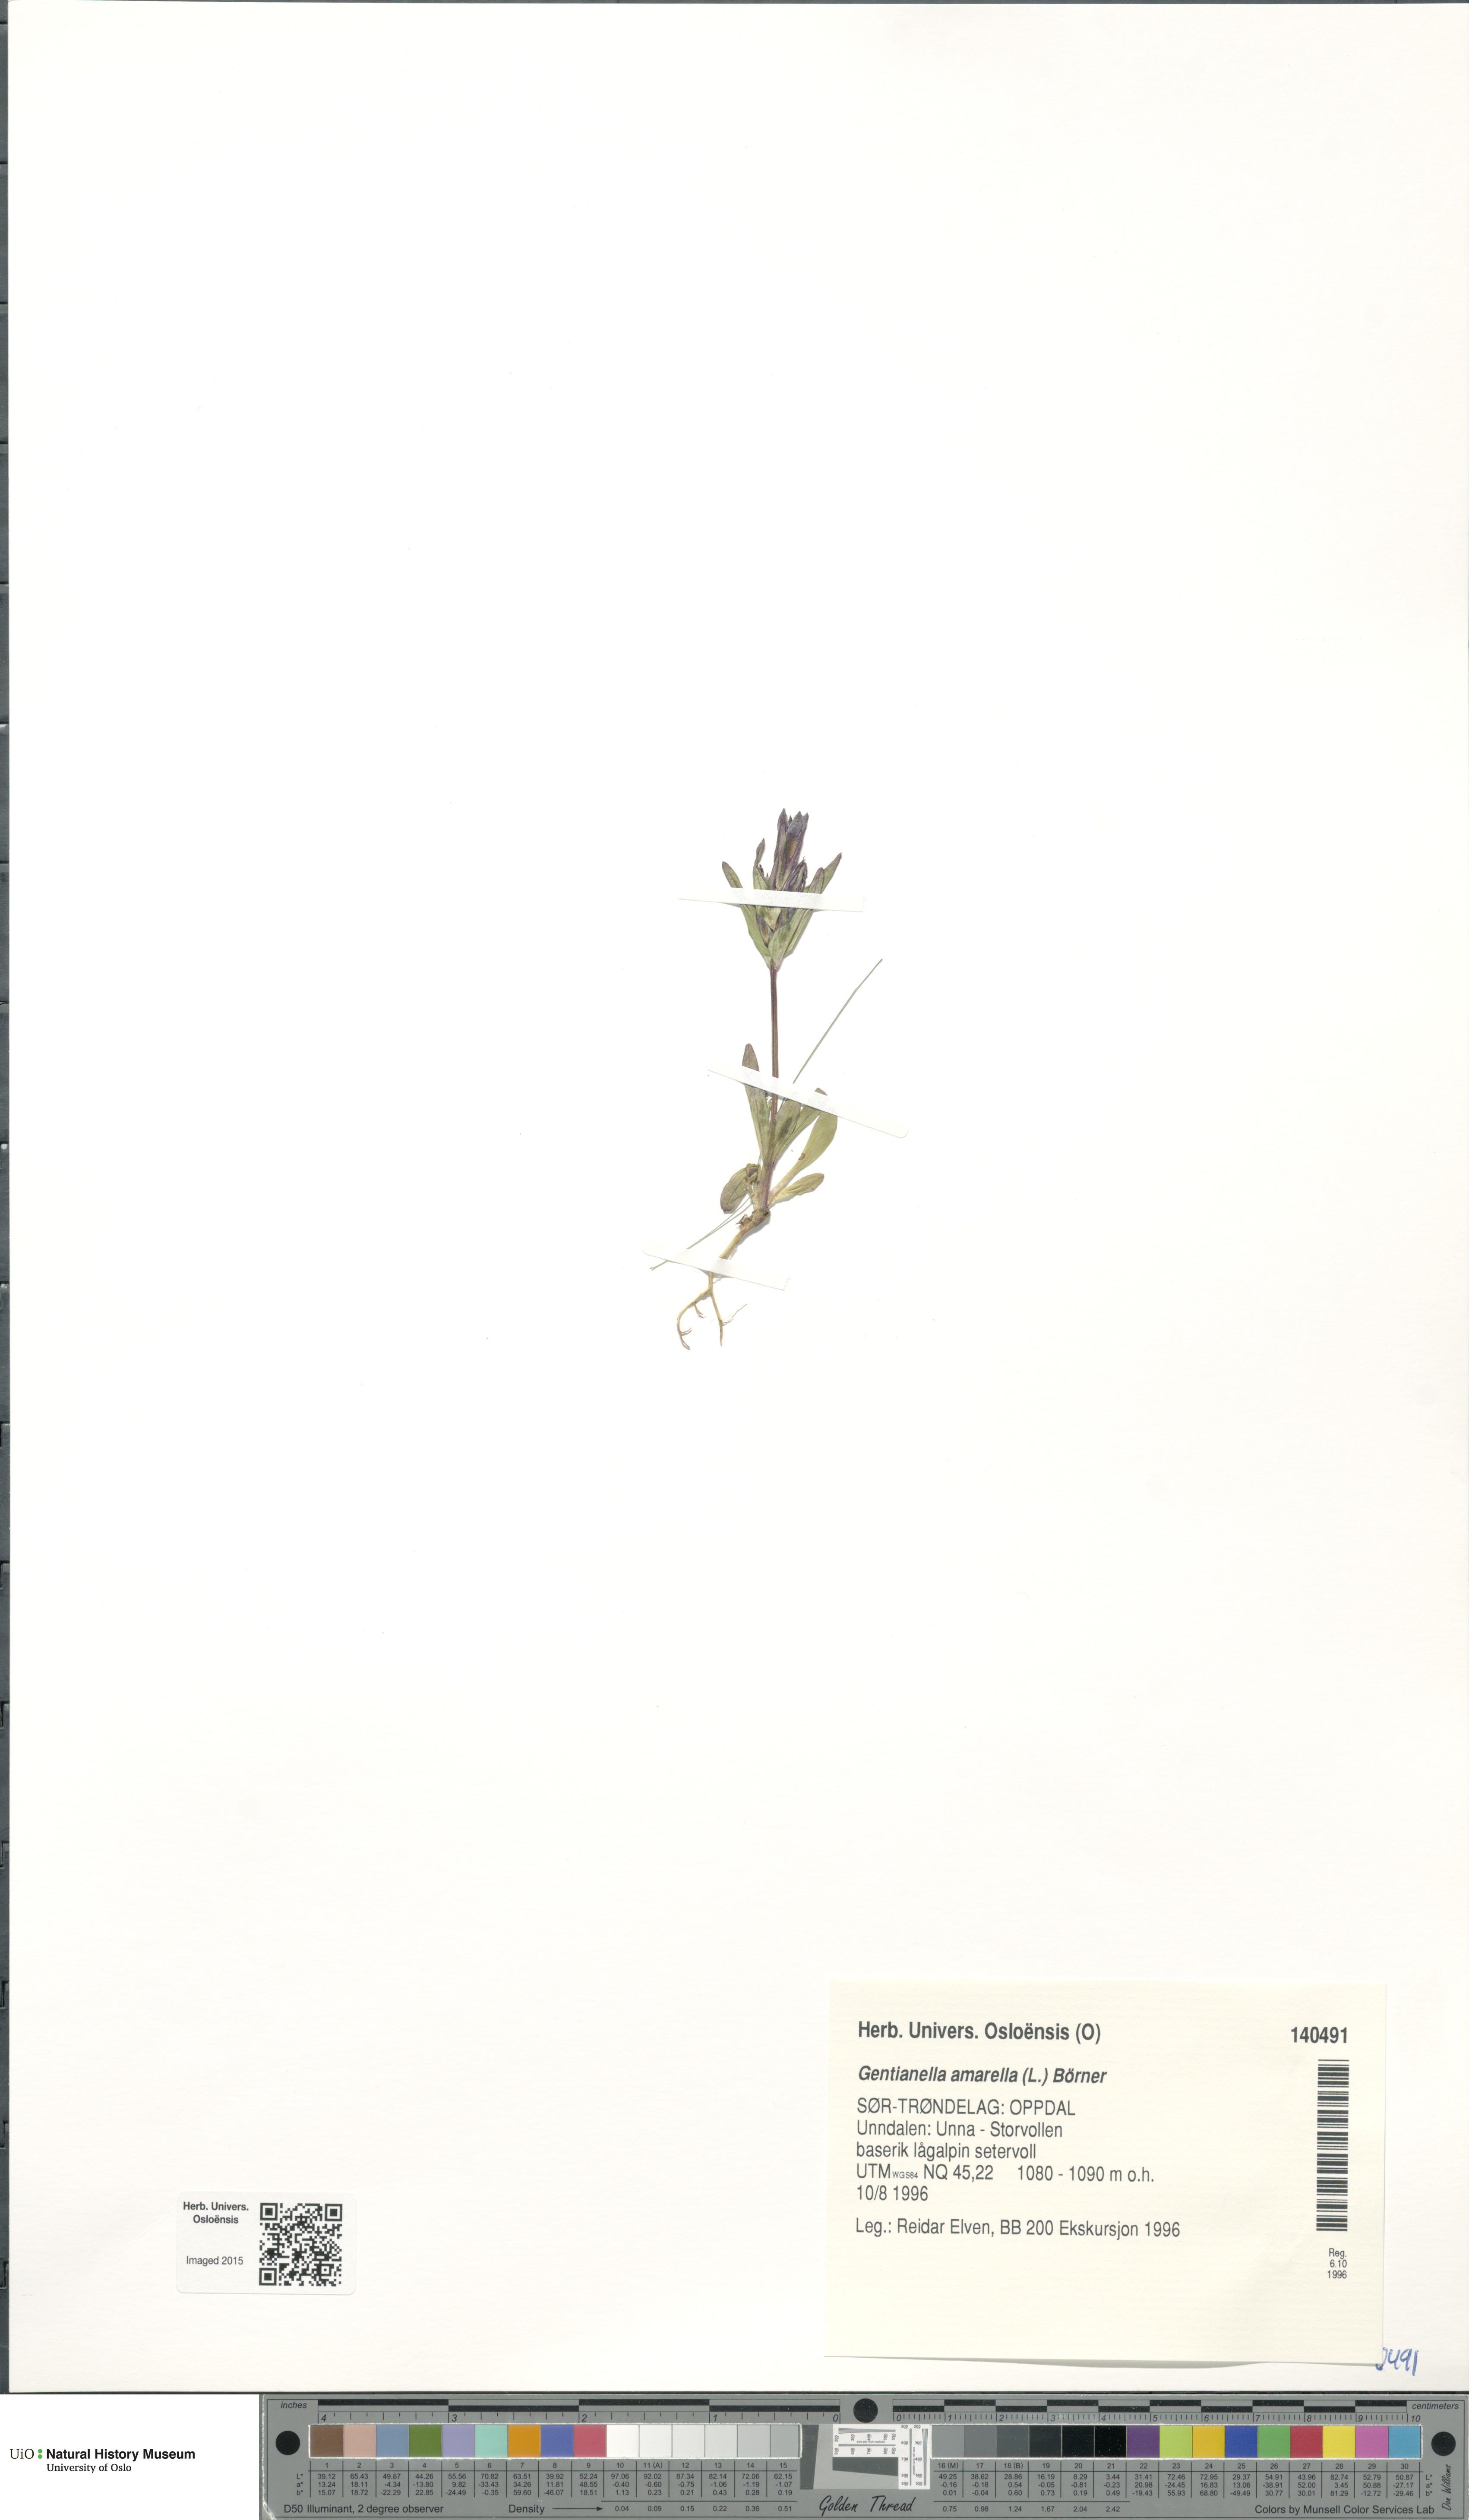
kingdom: Plantae
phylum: Tracheophyta
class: Magnoliopsida
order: Gentianales
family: Gentianaceae
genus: Gentianella
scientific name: Gentianella amarella
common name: Autumn gentian
